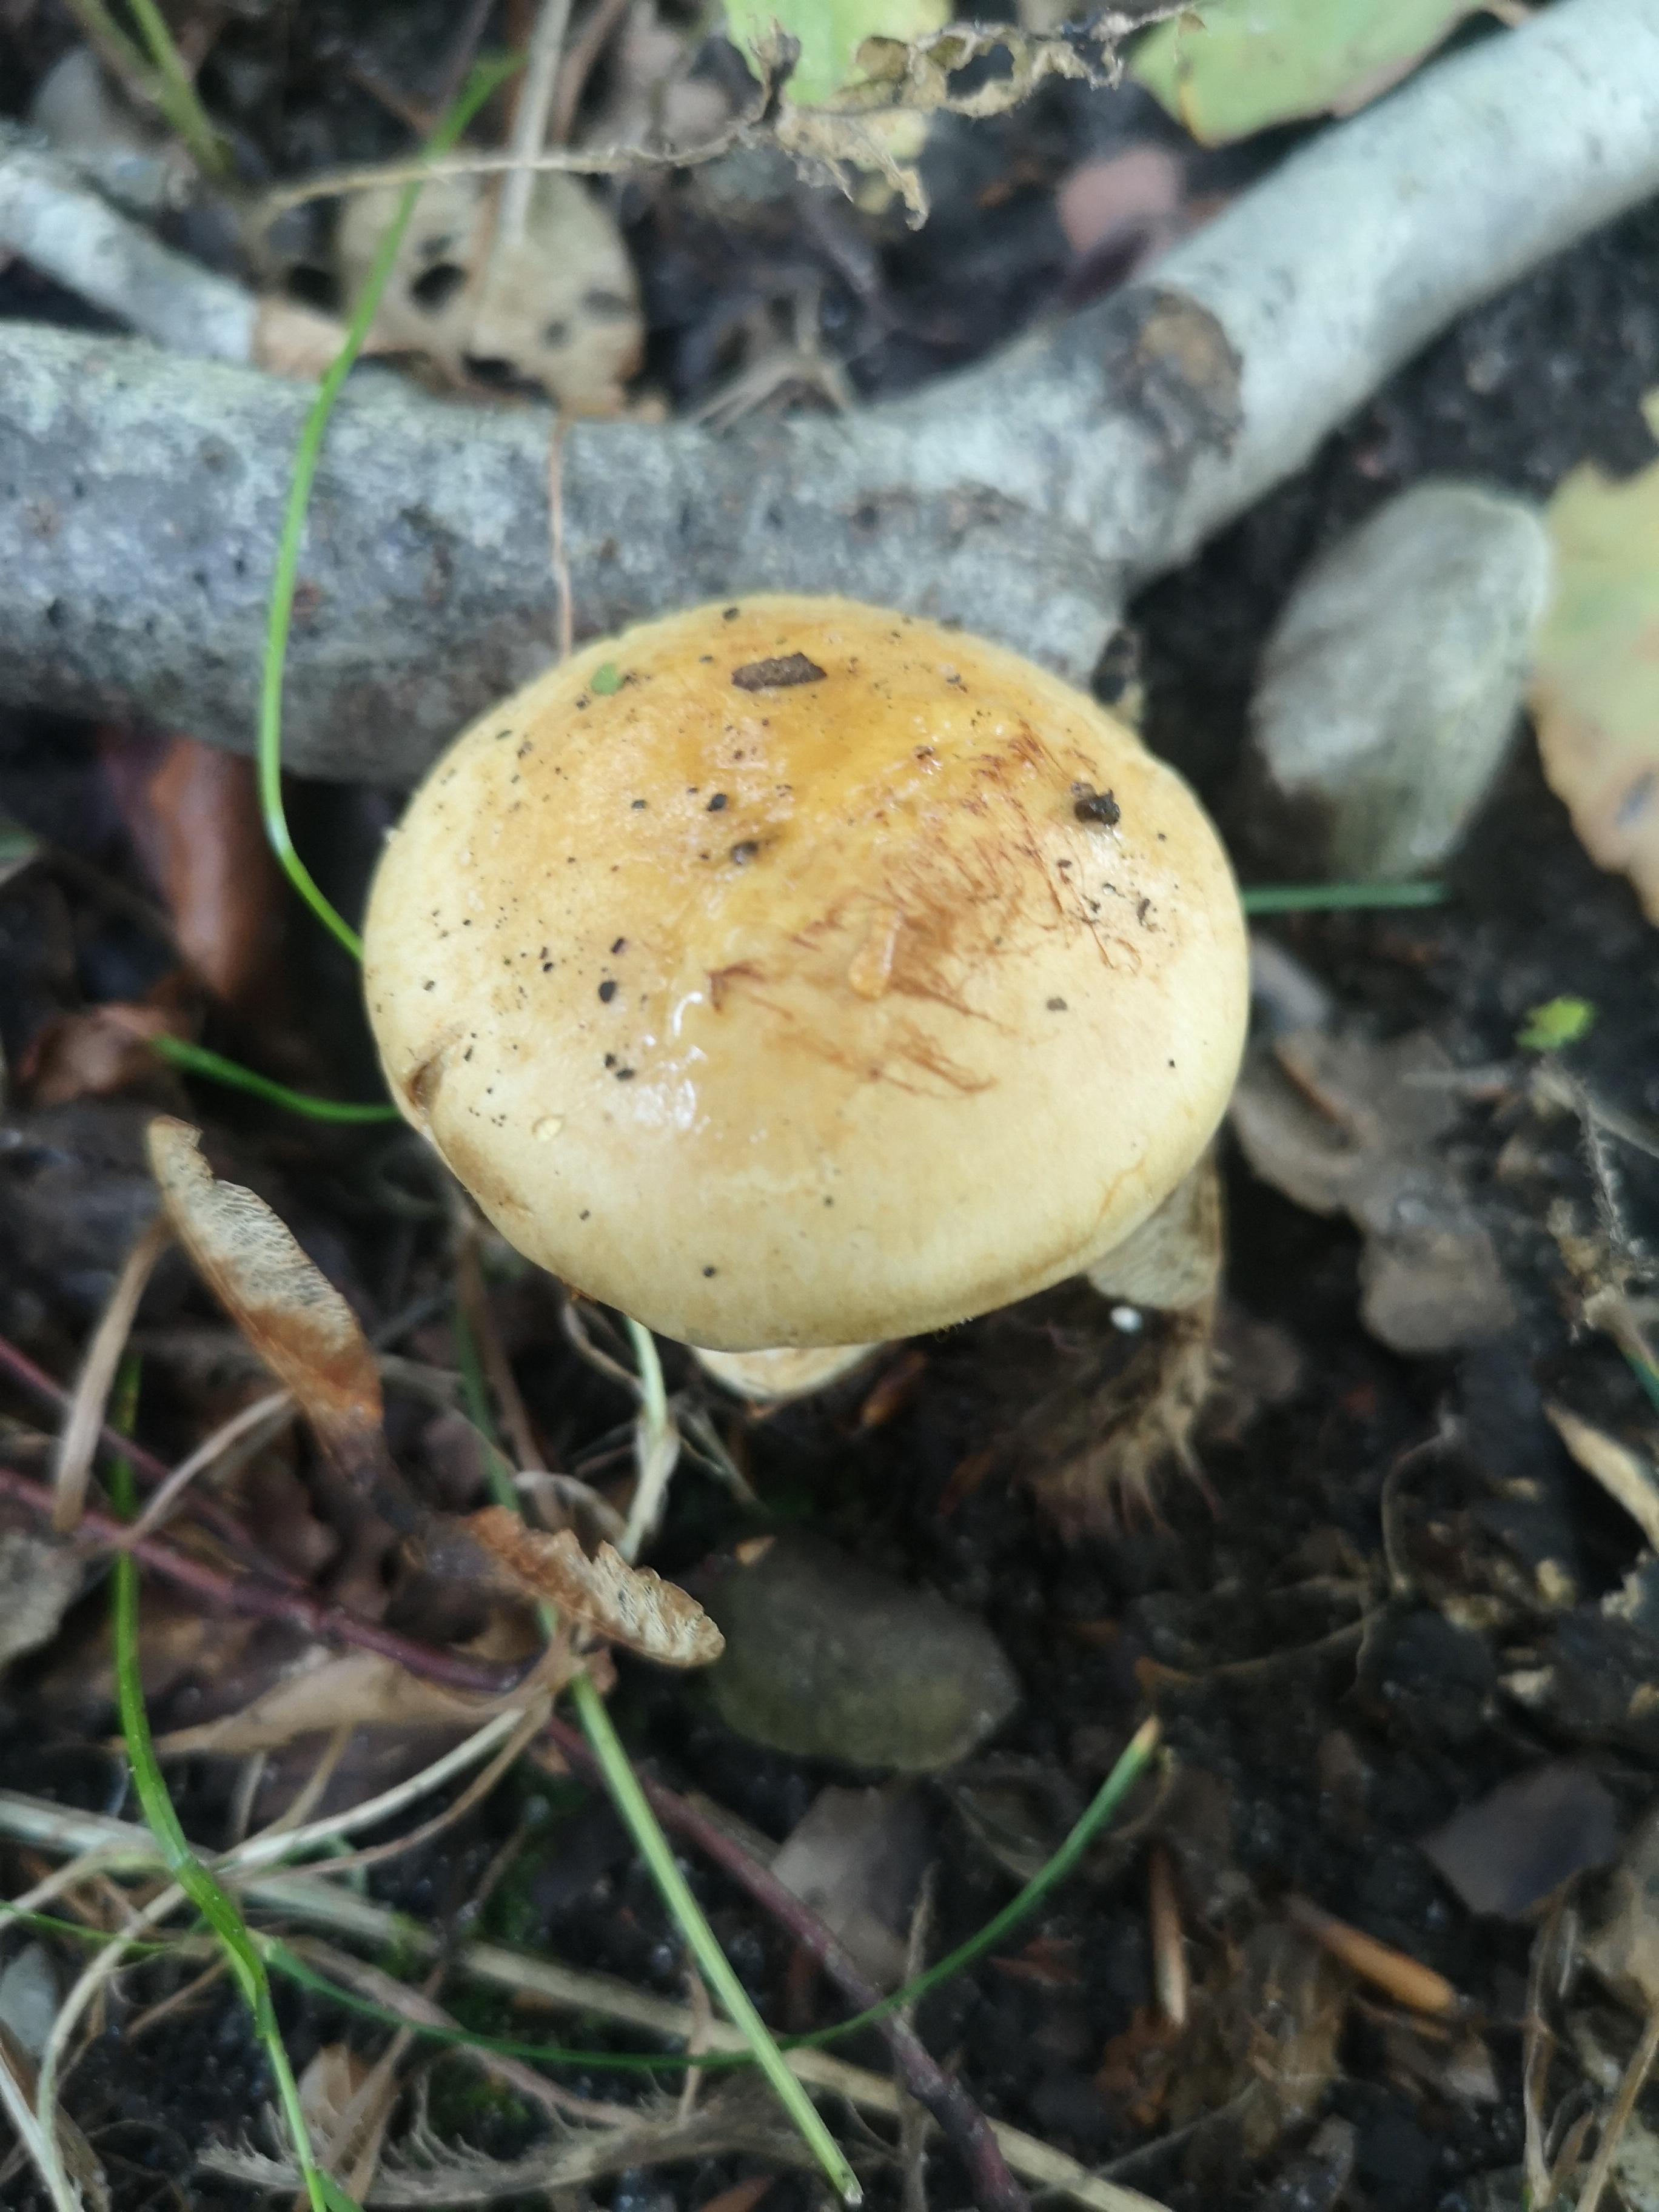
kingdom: Fungi
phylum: Basidiomycota
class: Agaricomycetes
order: Agaricales
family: Cortinariaceae
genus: Cortinarius
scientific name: Cortinarius anserinus
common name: bøge-slørhat
